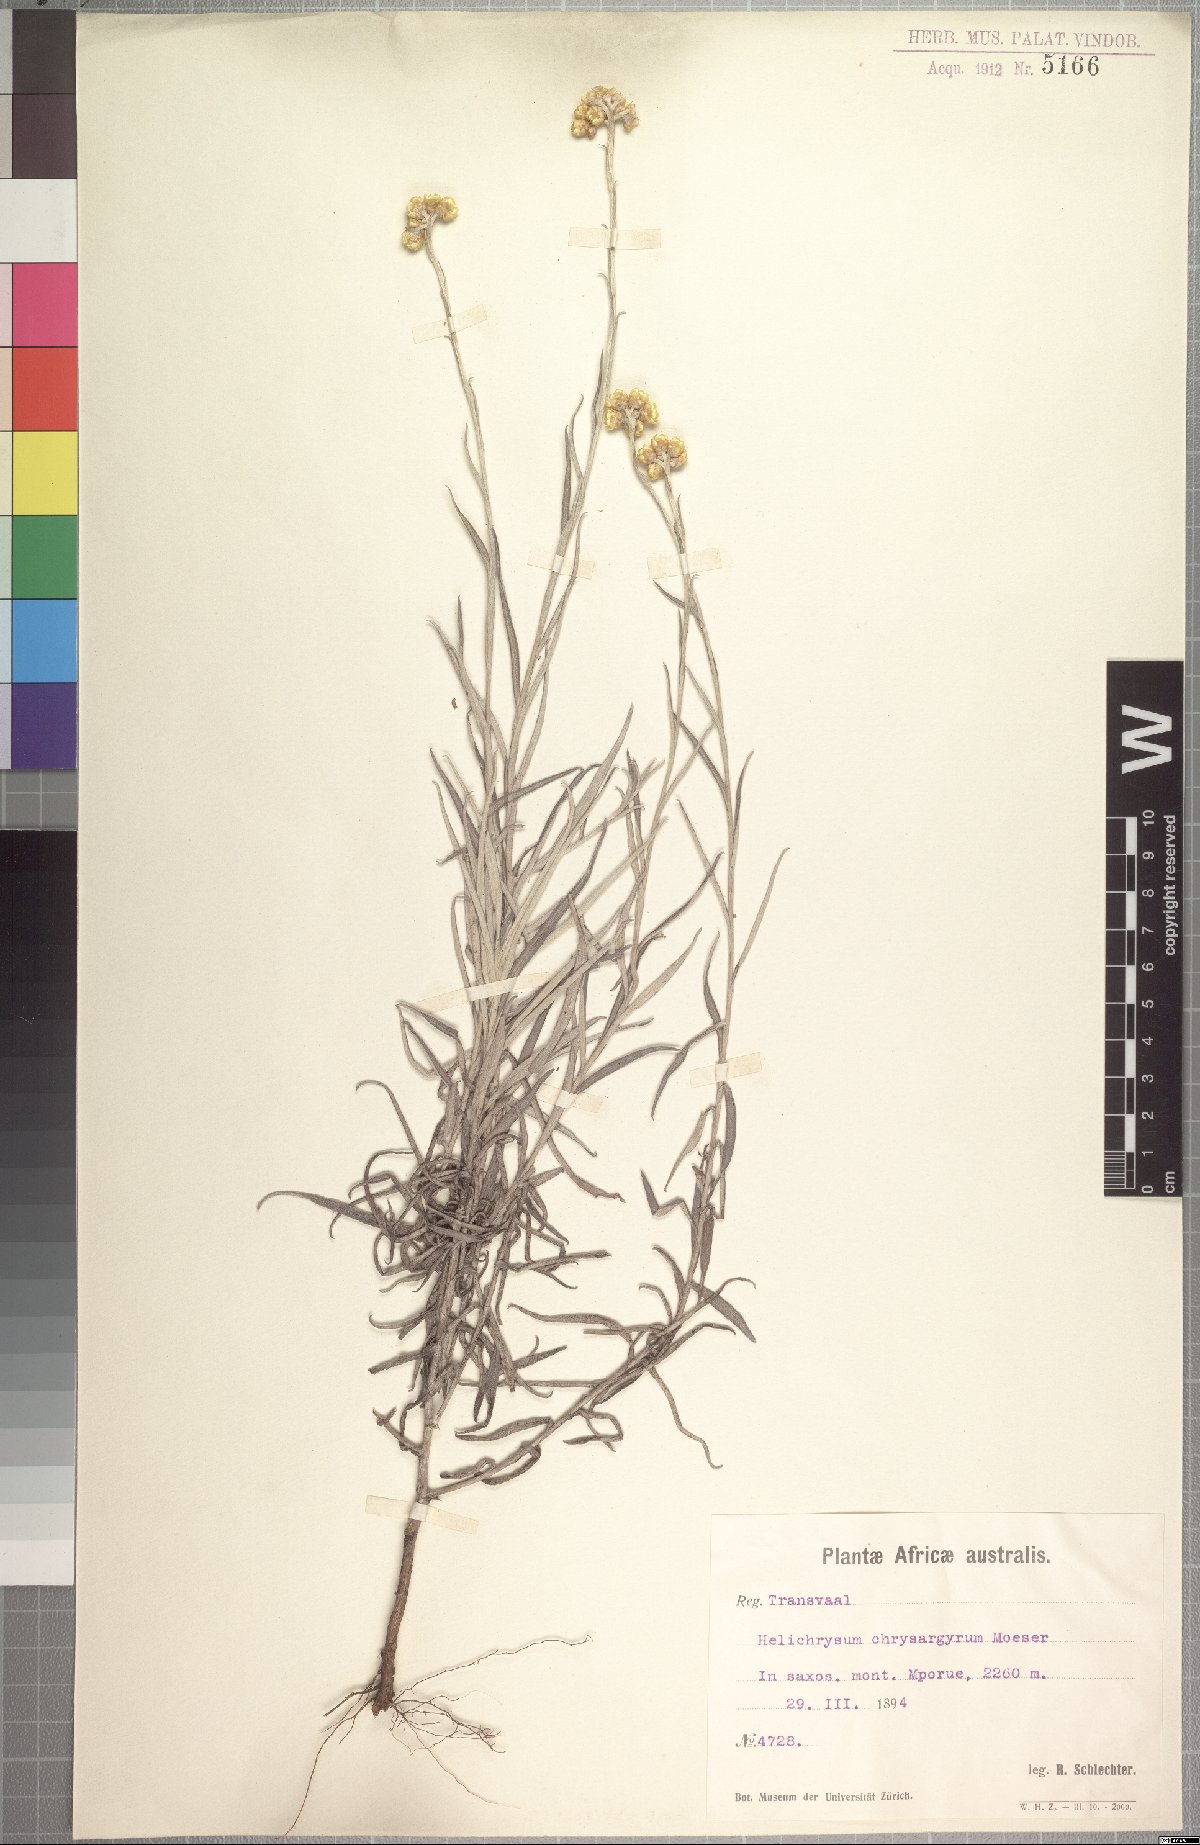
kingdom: Plantae
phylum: Tracheophyta
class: Magnoliopsida
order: Asterales
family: Asteraceae
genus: Helichrysum
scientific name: Helichrysum chrysargyrum
